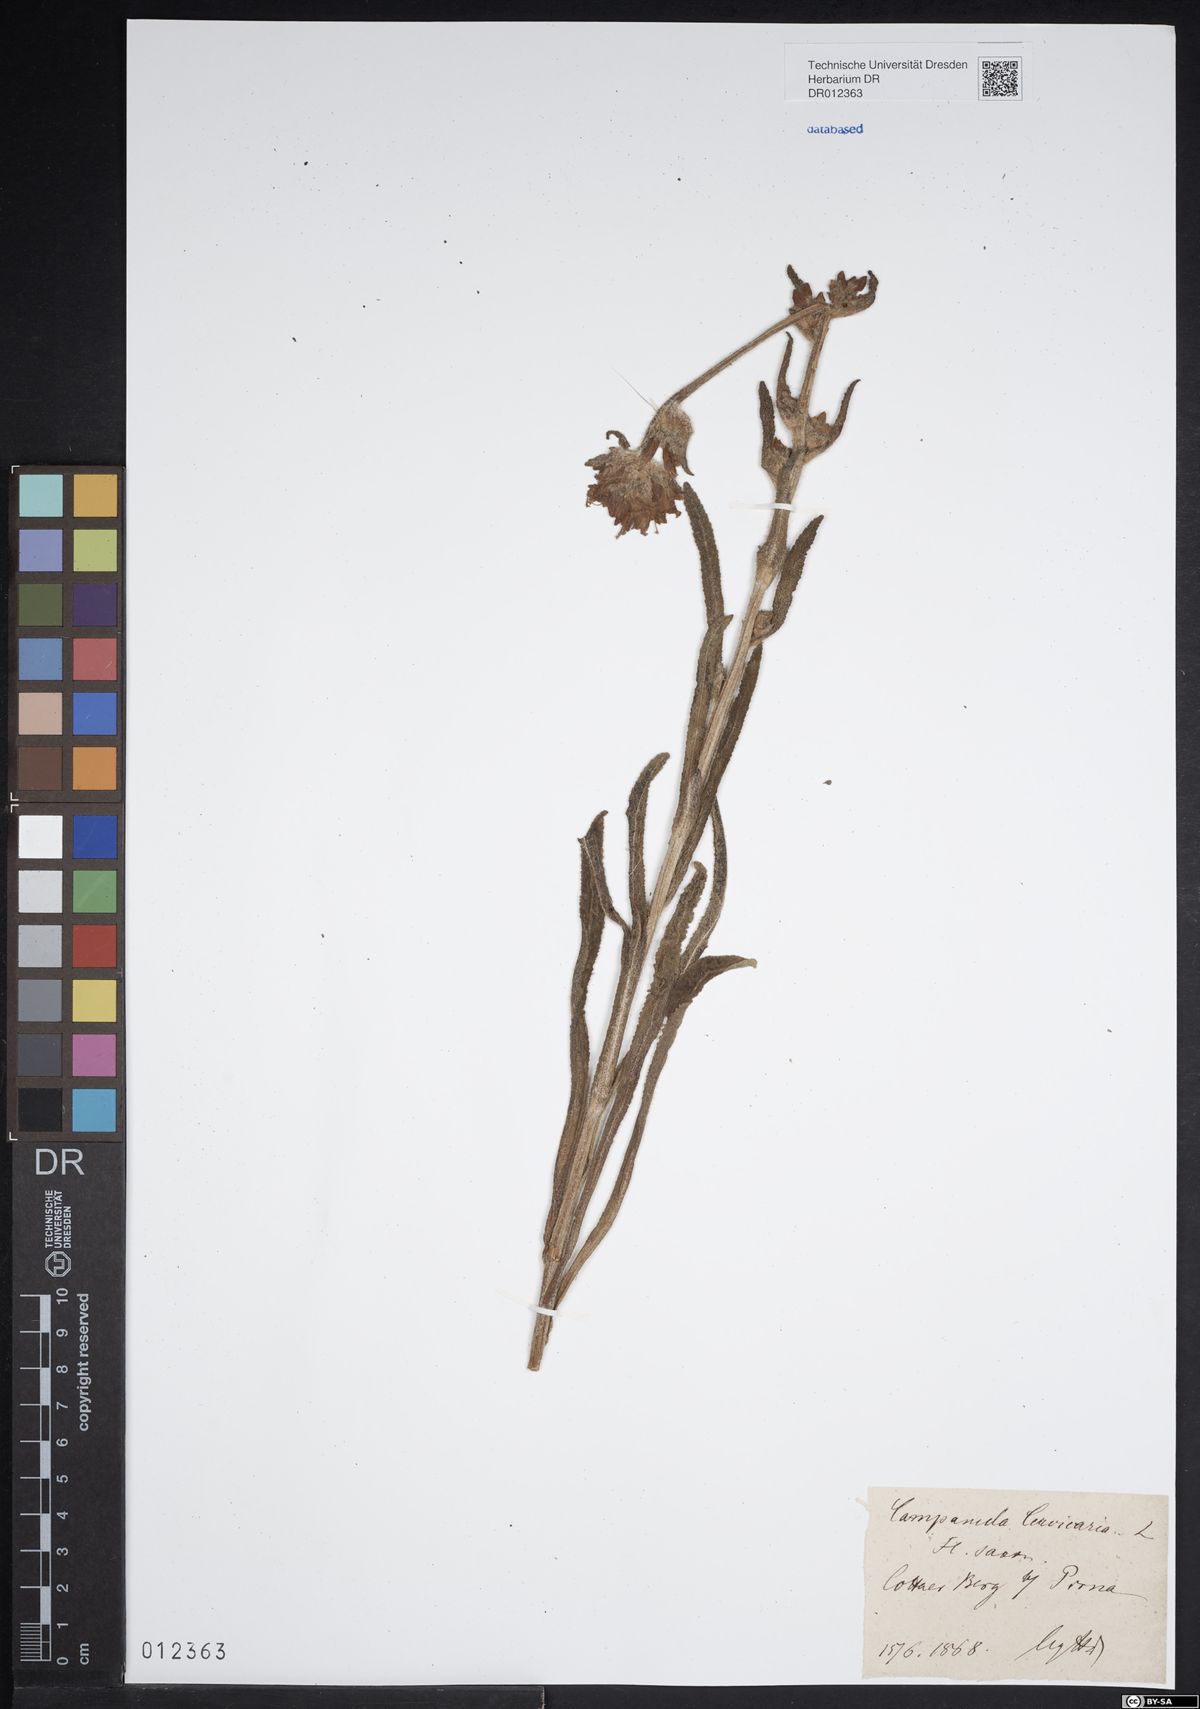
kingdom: Plantae
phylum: Tracheophyta
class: Magnoliopsida
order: Asterales
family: Campanulaceae
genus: Campanula
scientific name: Campanula cervicaria
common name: Bristly bellflower
